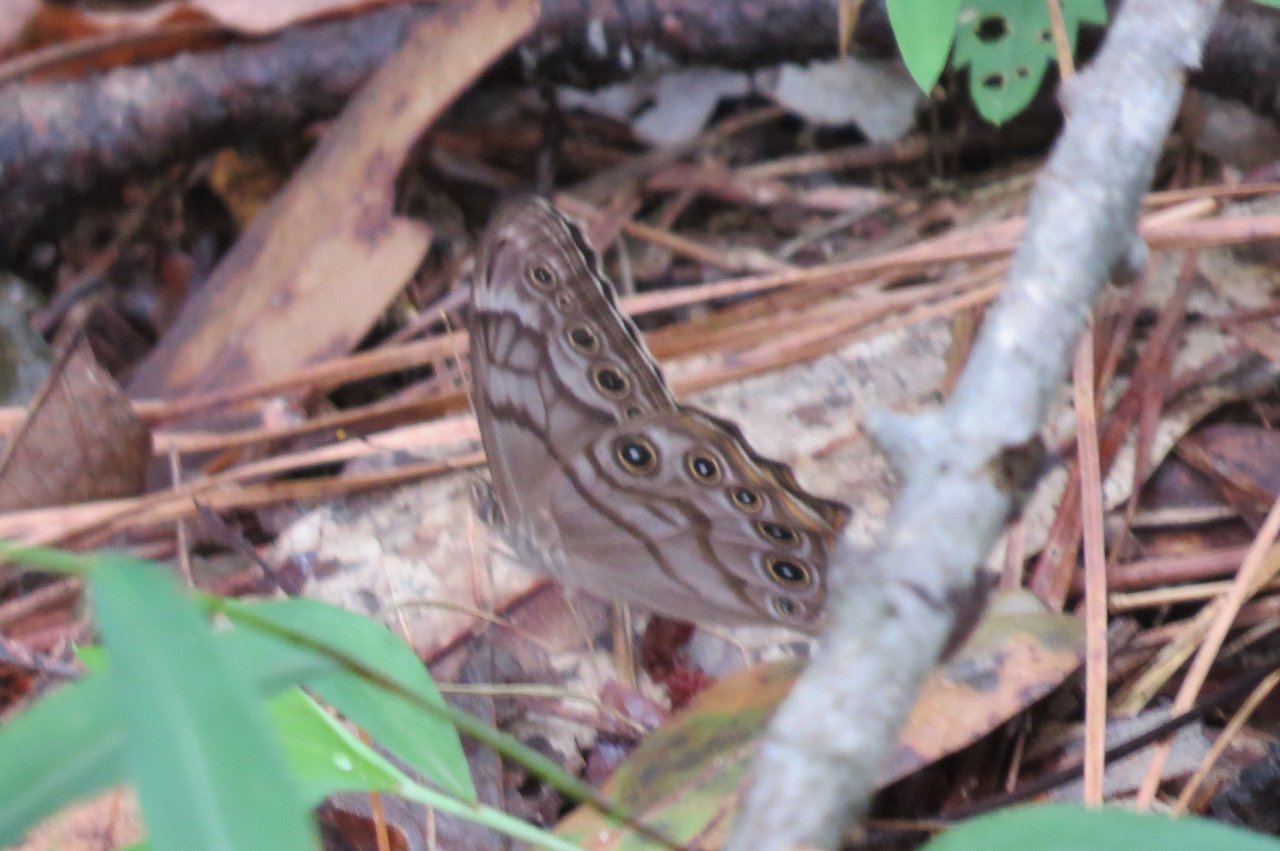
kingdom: Animalia
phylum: Arthropoda
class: Insecta
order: Lepidoptera
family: Nymphalidae
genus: Lethe
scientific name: Lethe creola
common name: Creole Pearly-Eye
